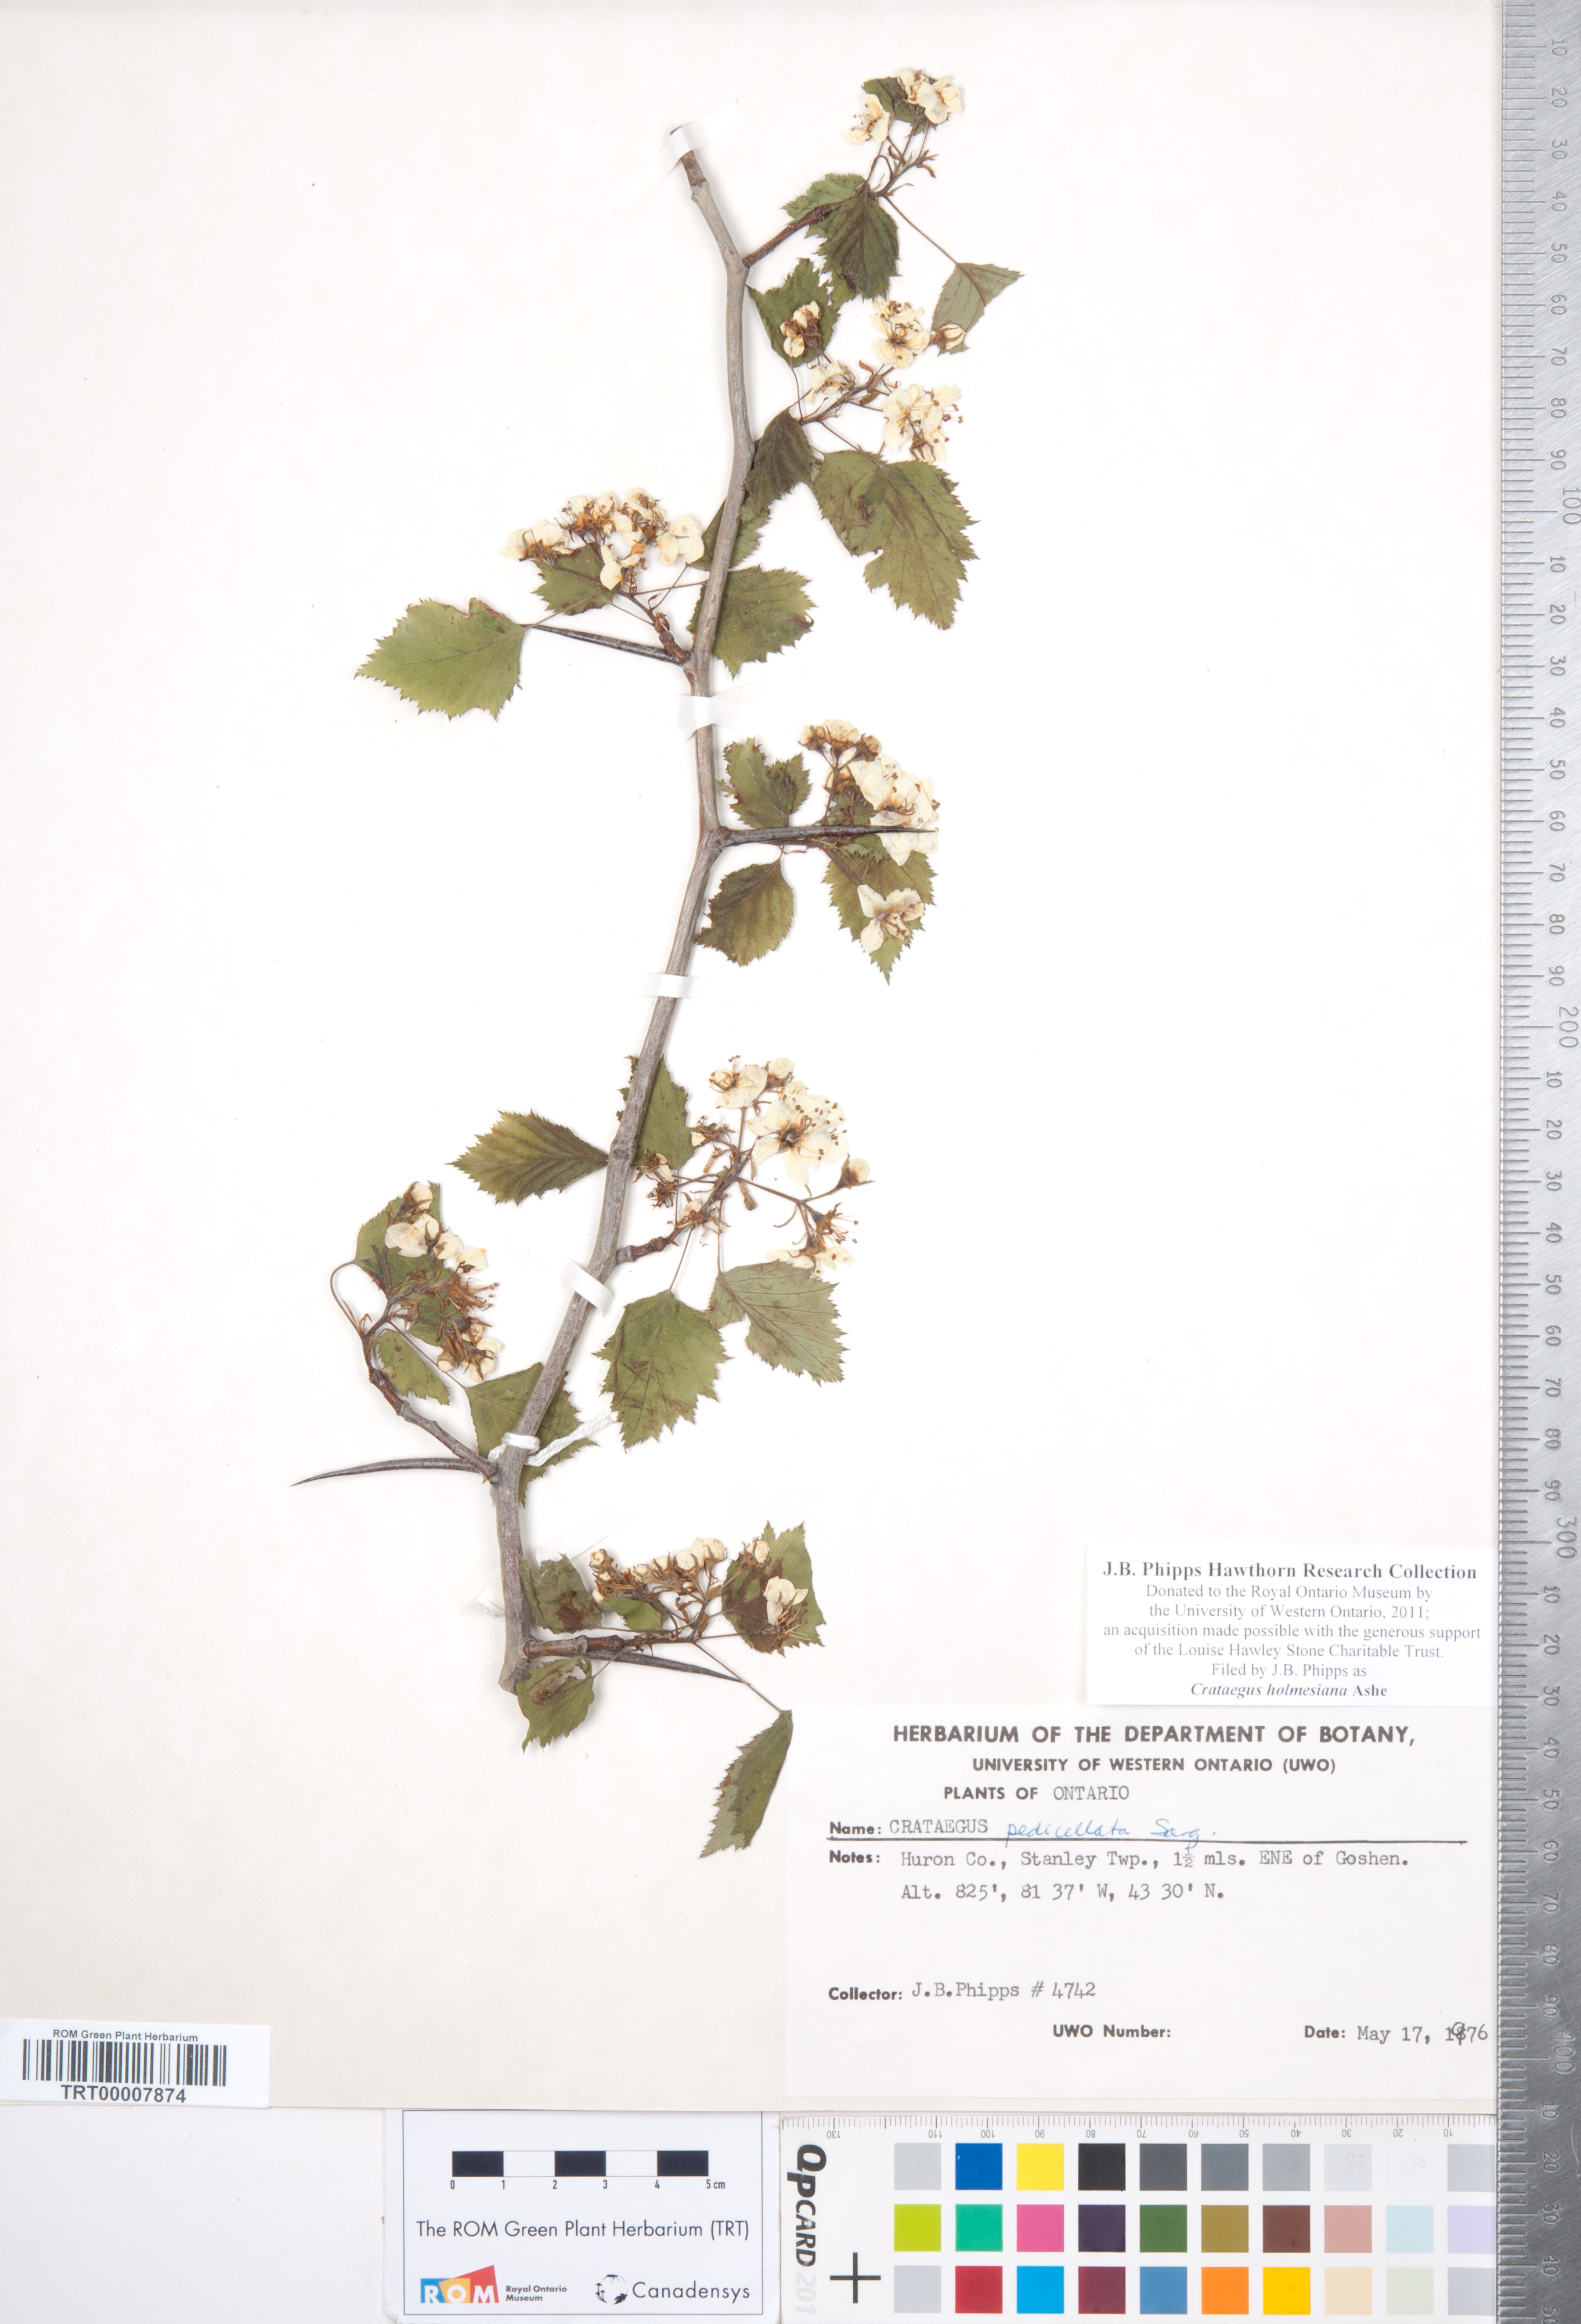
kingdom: Plantae
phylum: Tracheophyta
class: Magnoliopsida
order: Rosales
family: Rosaceae
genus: Crataegus
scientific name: Crataegus holmesiana
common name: Holmes' hawthorn
